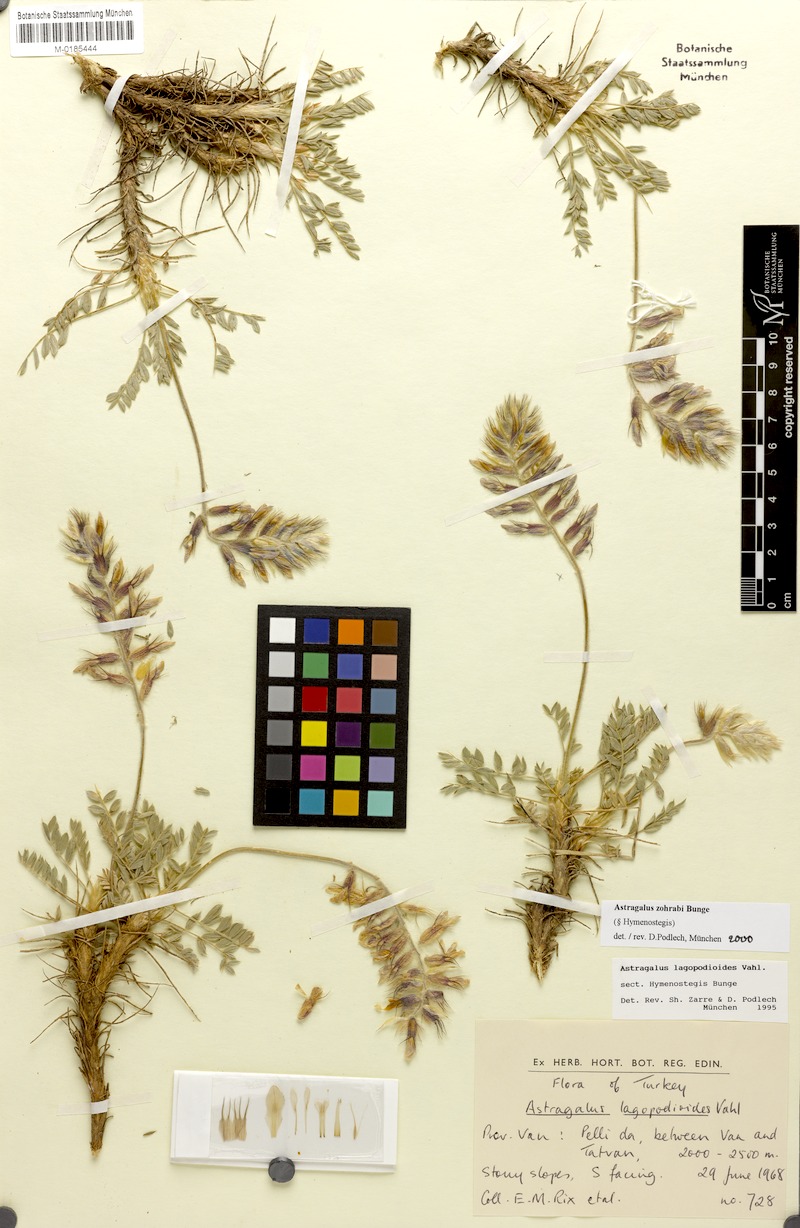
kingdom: Plantae
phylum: Tracheophyta
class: Magnoliopsida
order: Fabales
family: Fabaceae
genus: Astragalus
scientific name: Astragalus lagopodioides
